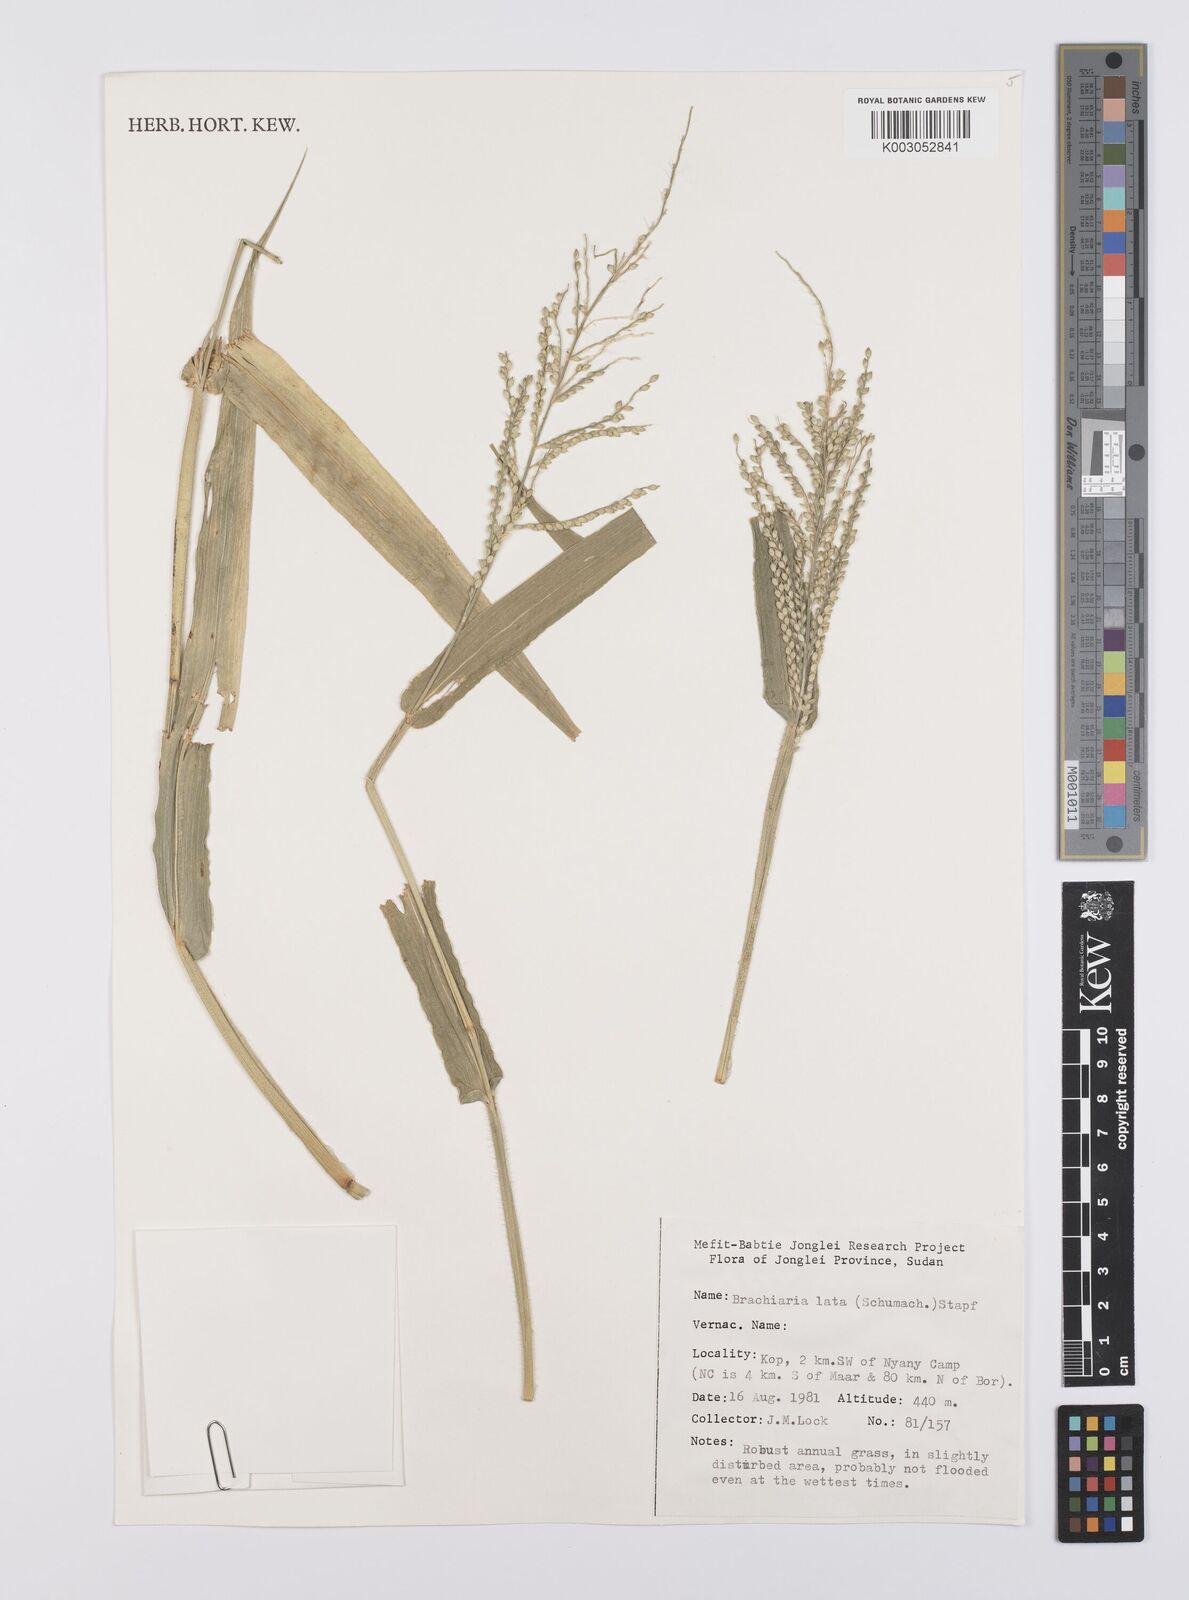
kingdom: Plantae
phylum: Tracheophyta
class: Liliopsida
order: Poales
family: Poaceae
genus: Urochloa
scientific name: Urochloa lata
